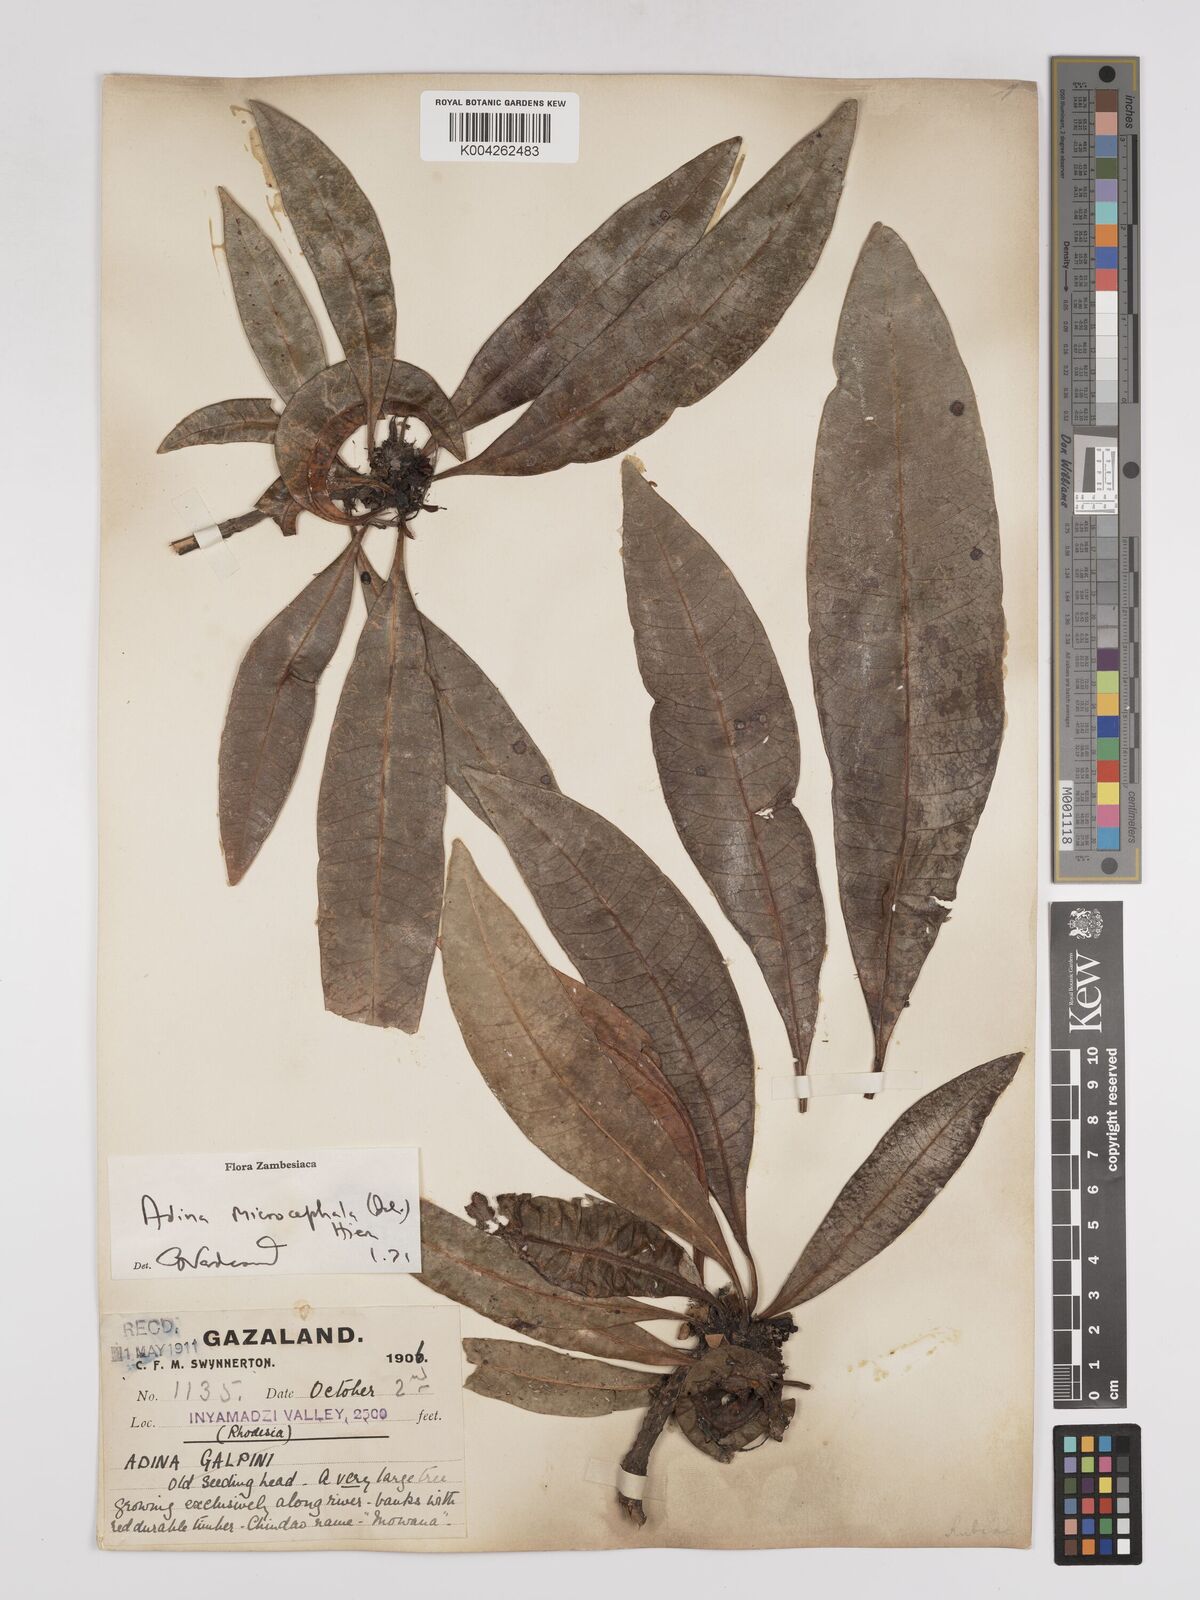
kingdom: Plantae
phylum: Tracheophyta
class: Magnoliopsida
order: Gentianales
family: Rubiaceae
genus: Breonadia
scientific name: Breonadia salicina
